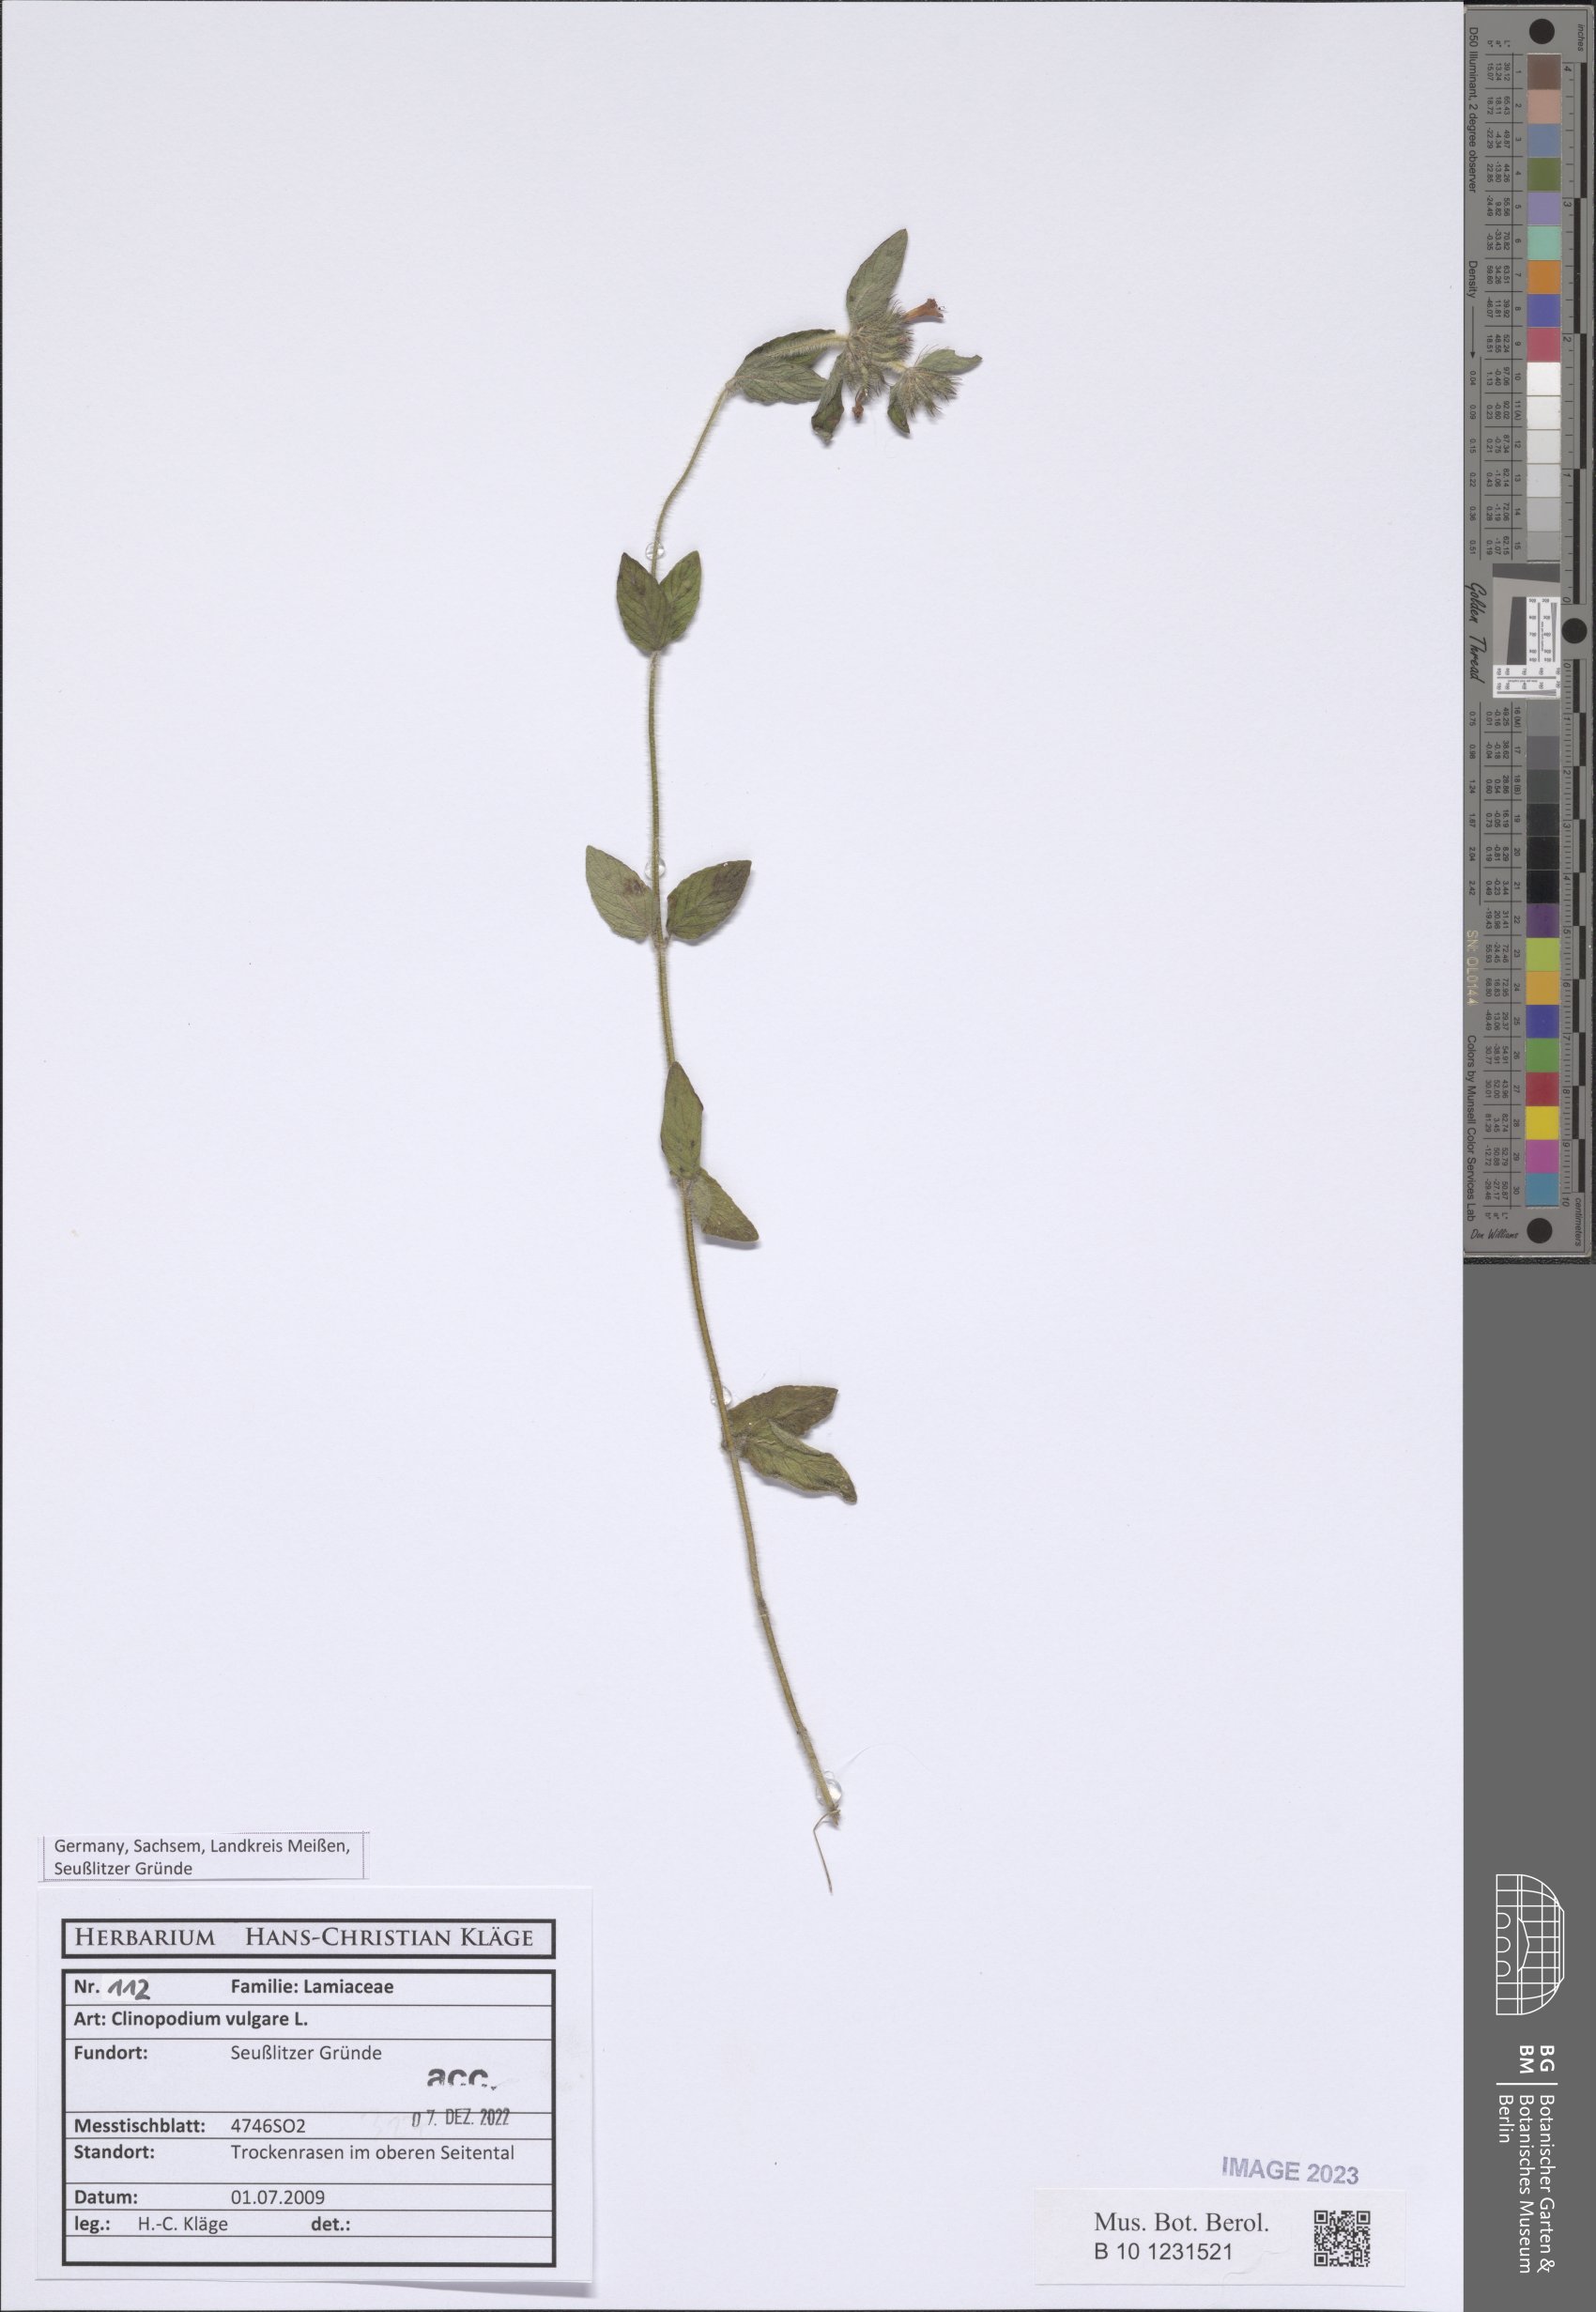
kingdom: Plantae
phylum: Tracheophyta
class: Magnoliopsida
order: Lamiales
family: Lamiaceae
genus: Clinopodium
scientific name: Clinopodium vulgare
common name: Wild basil
